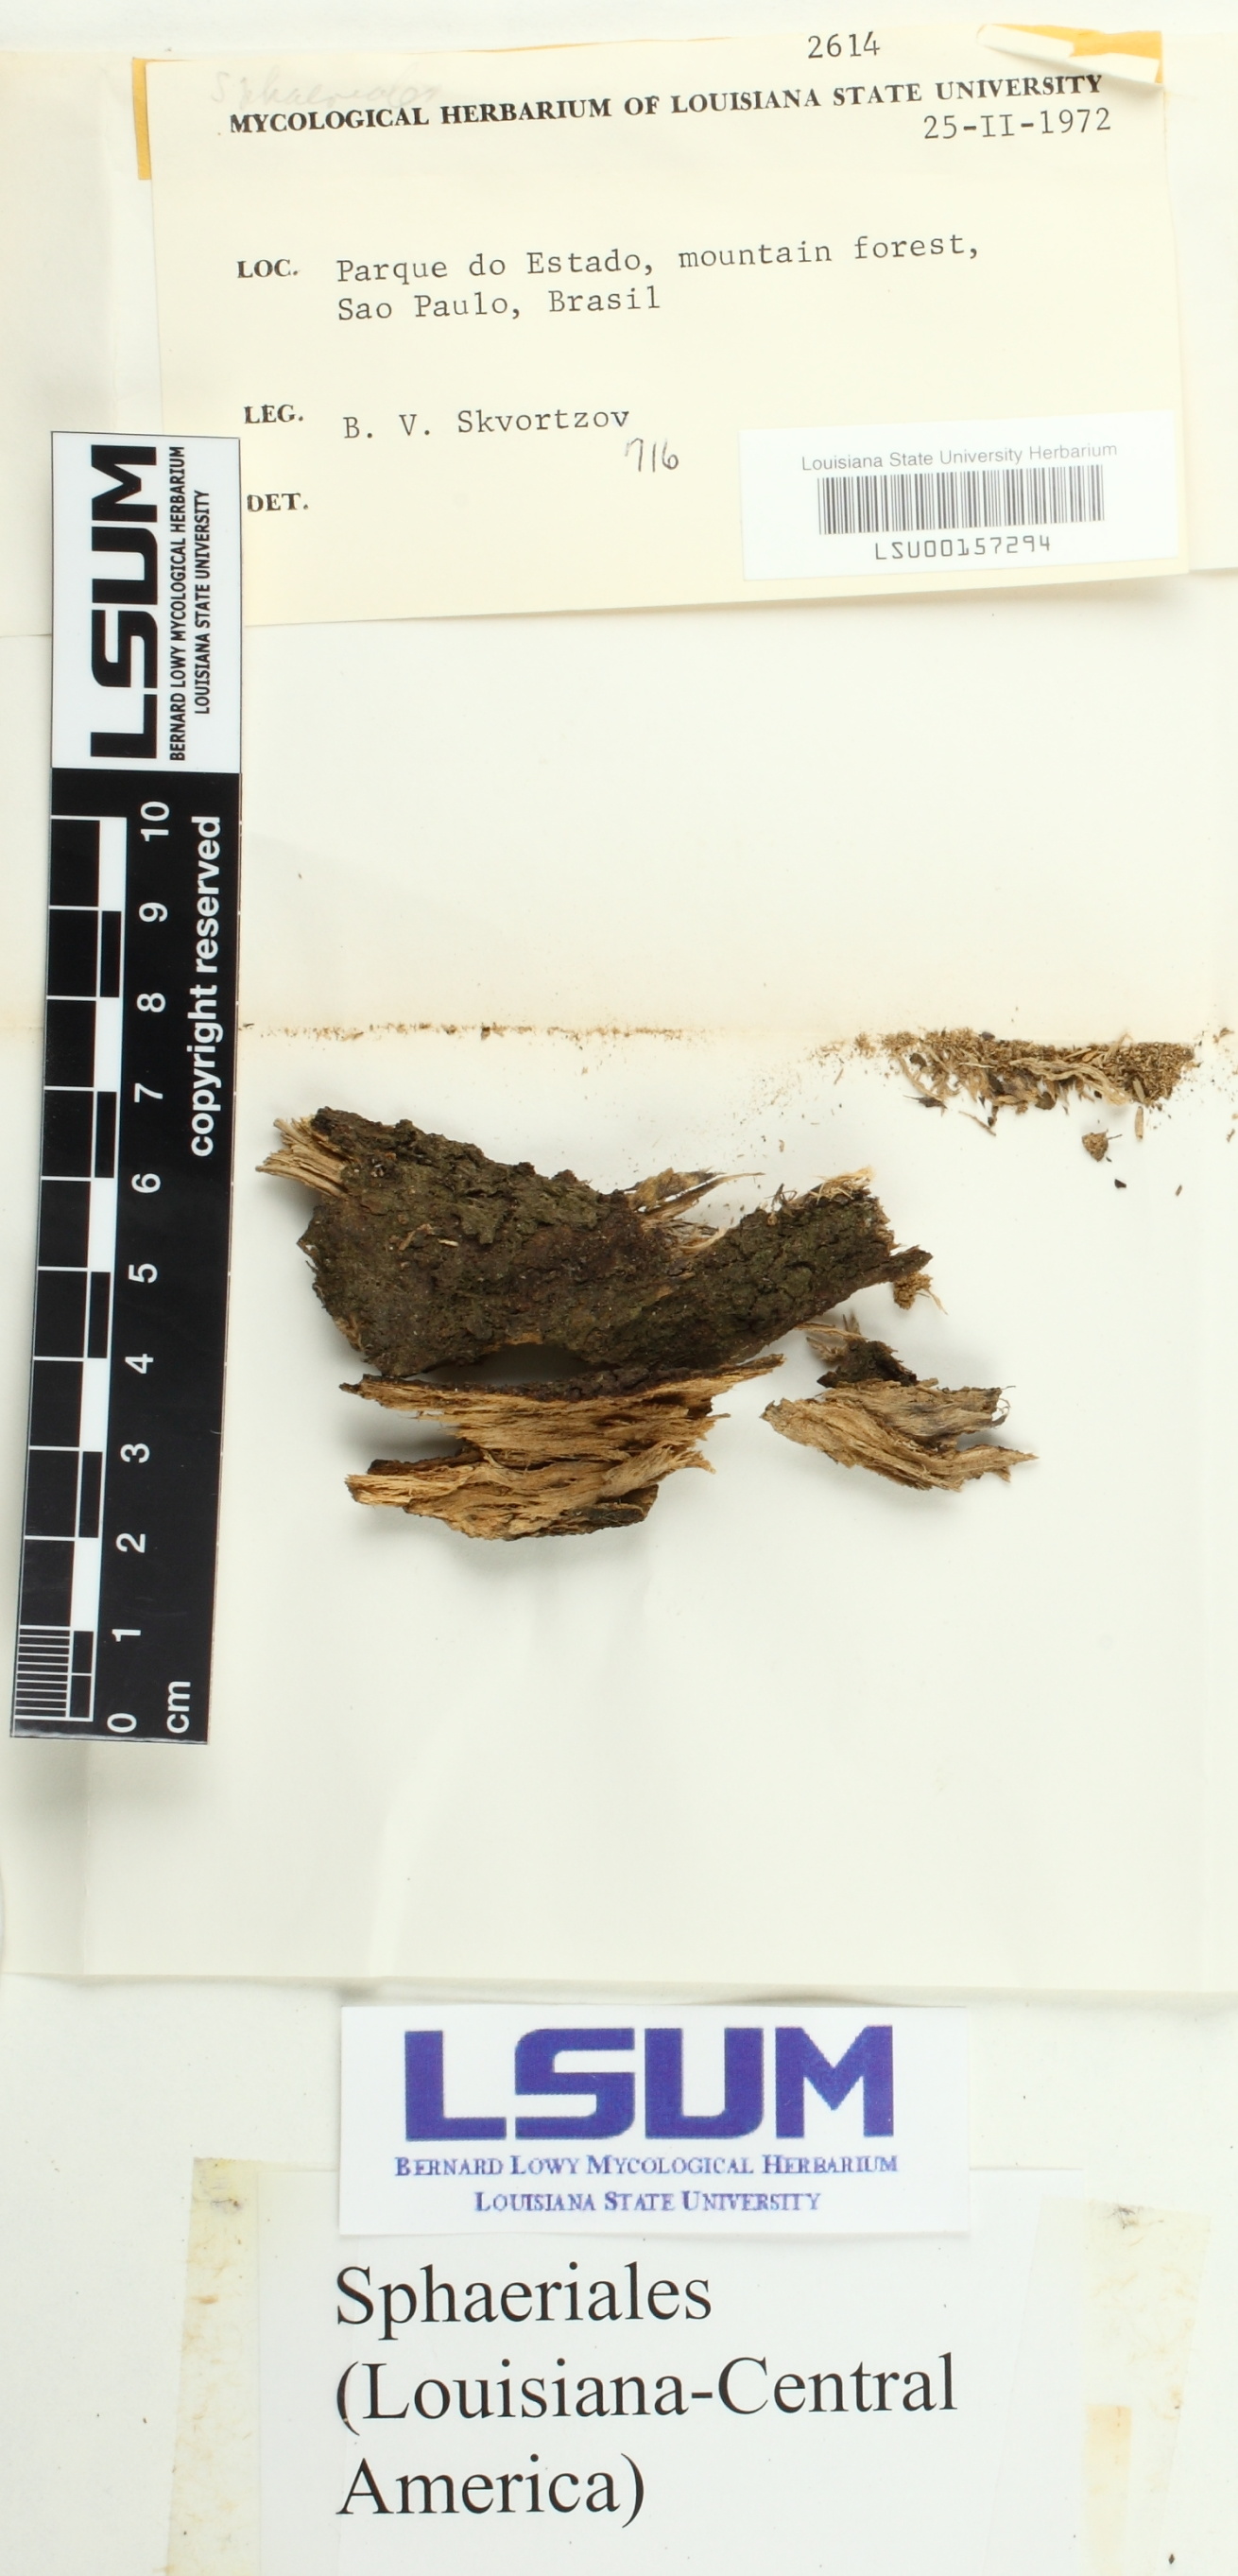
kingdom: Fungi
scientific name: Fungi
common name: Fungi
